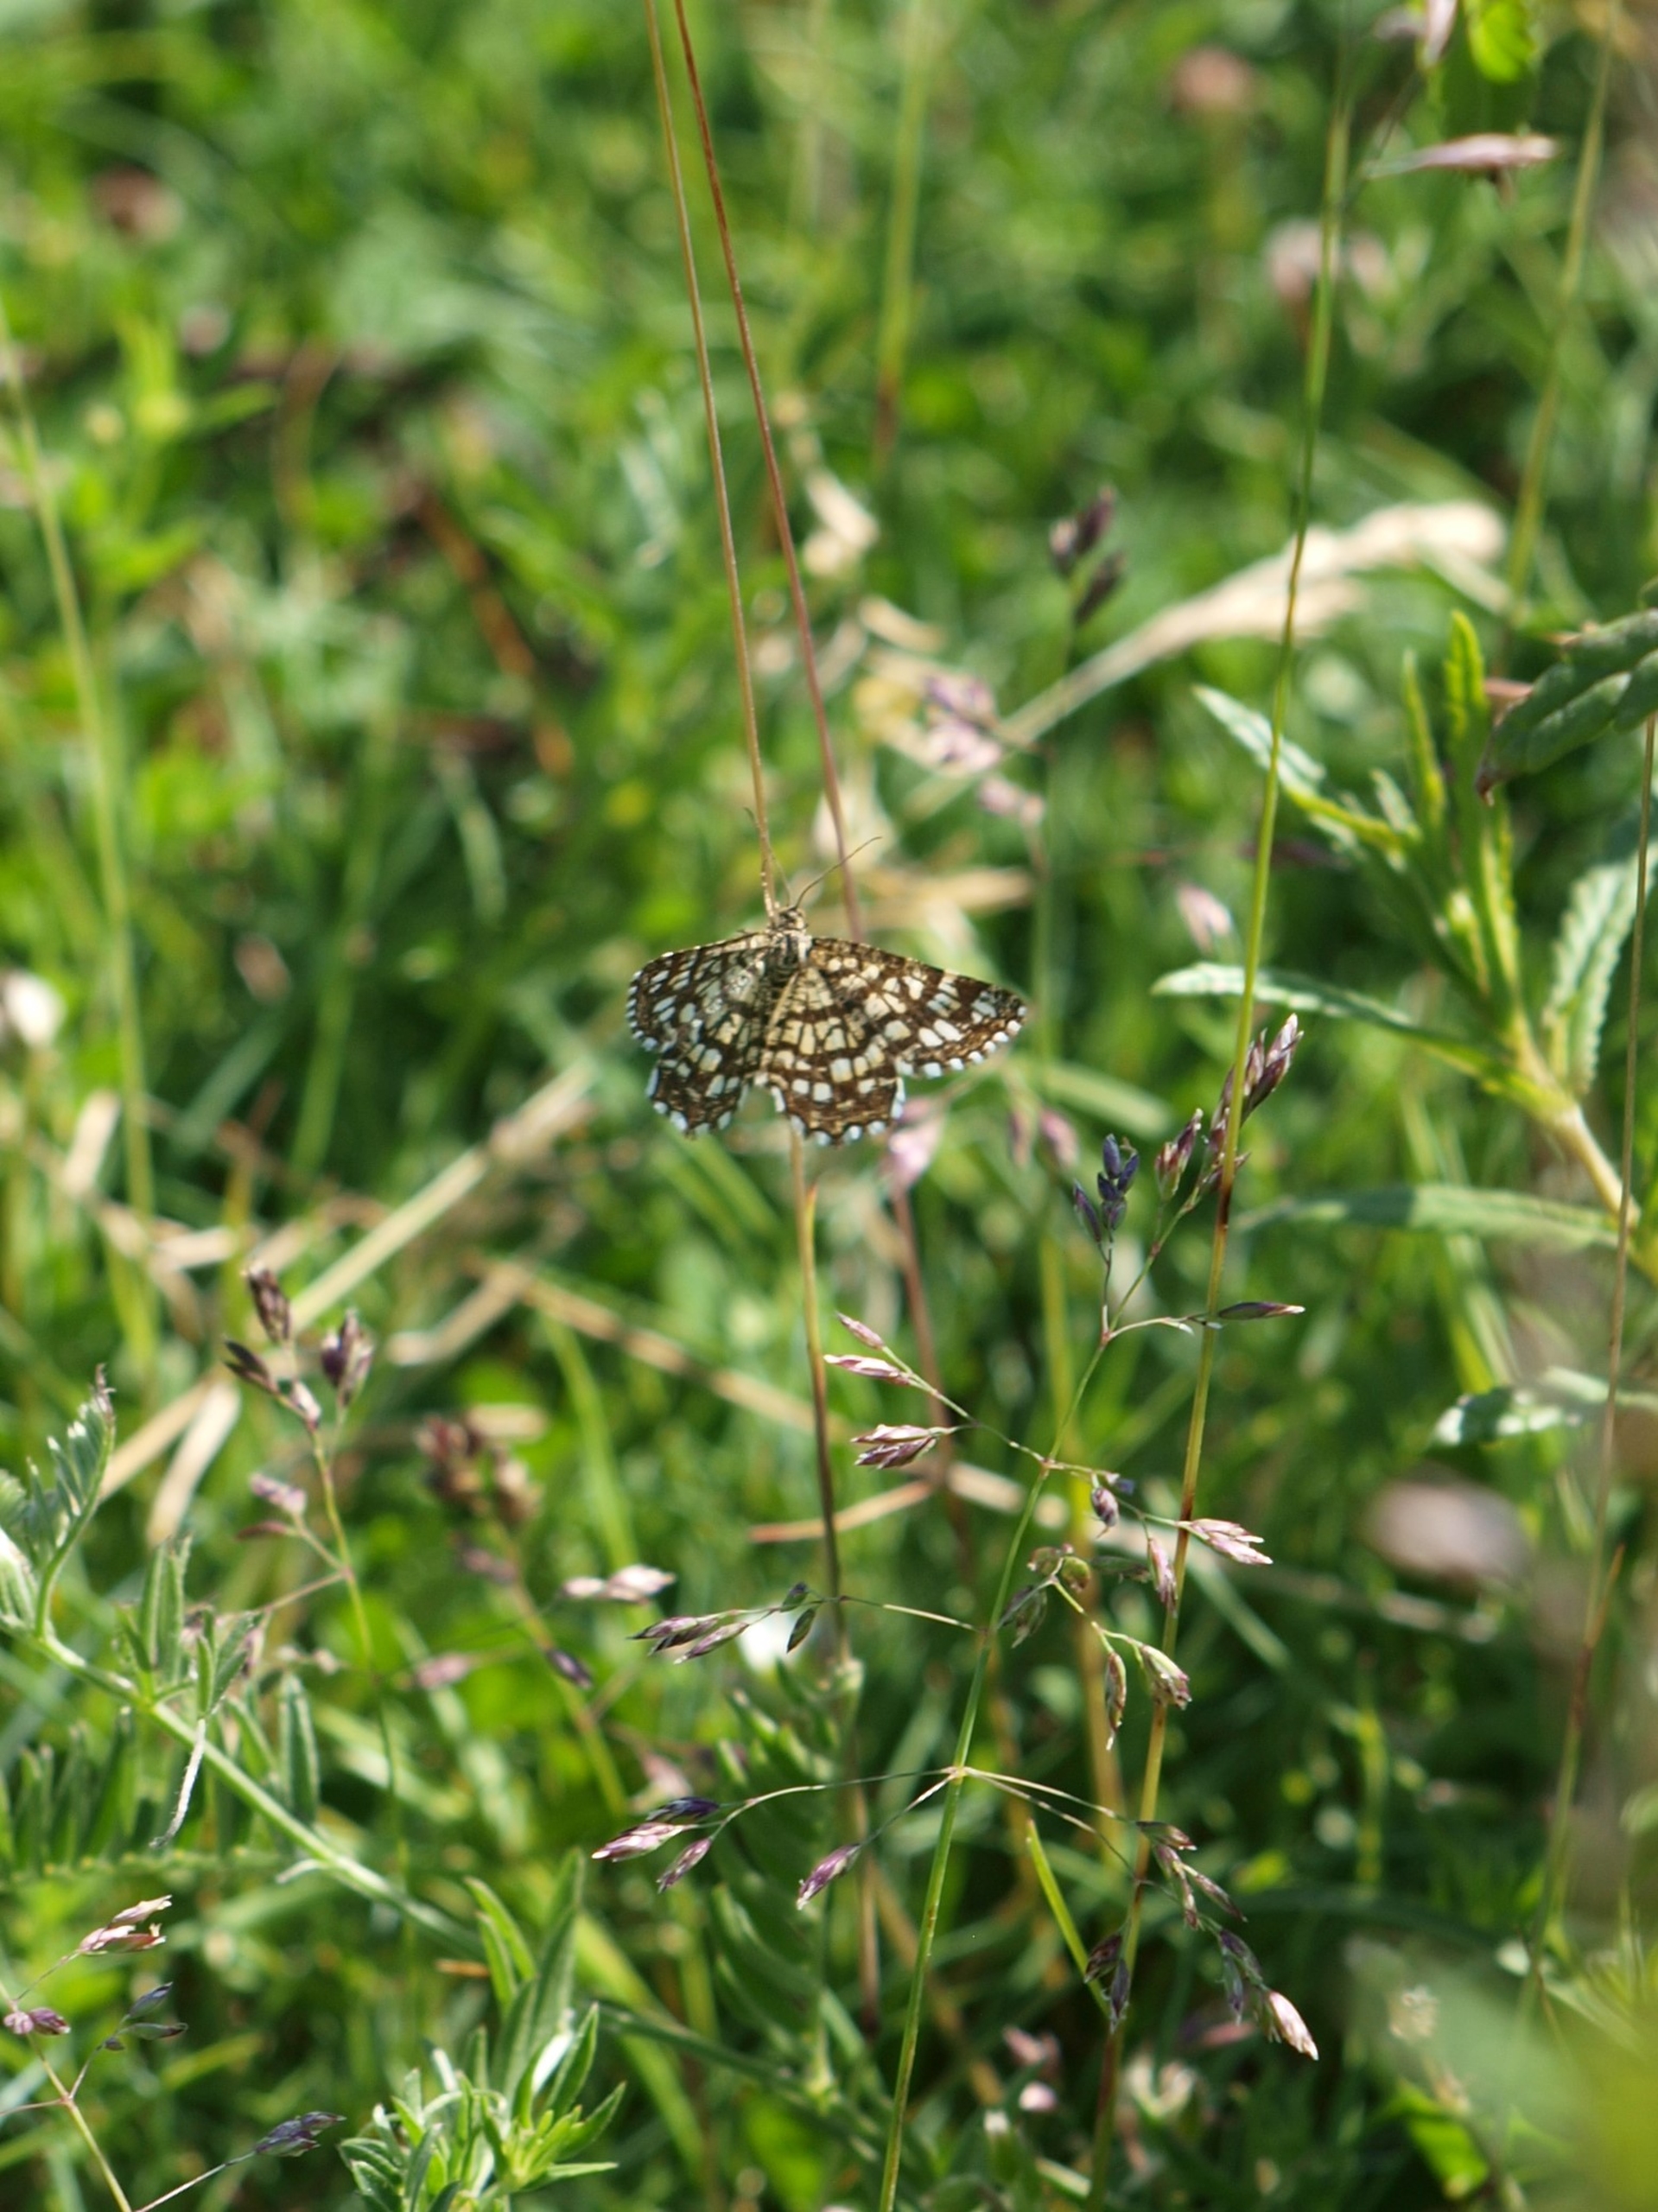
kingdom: Animalia
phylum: Arthropoda
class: Insecta
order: Lepidoptera
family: Geometridae
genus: Chiasmia
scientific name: Chiasmia clathrata
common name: Kløvermåler
